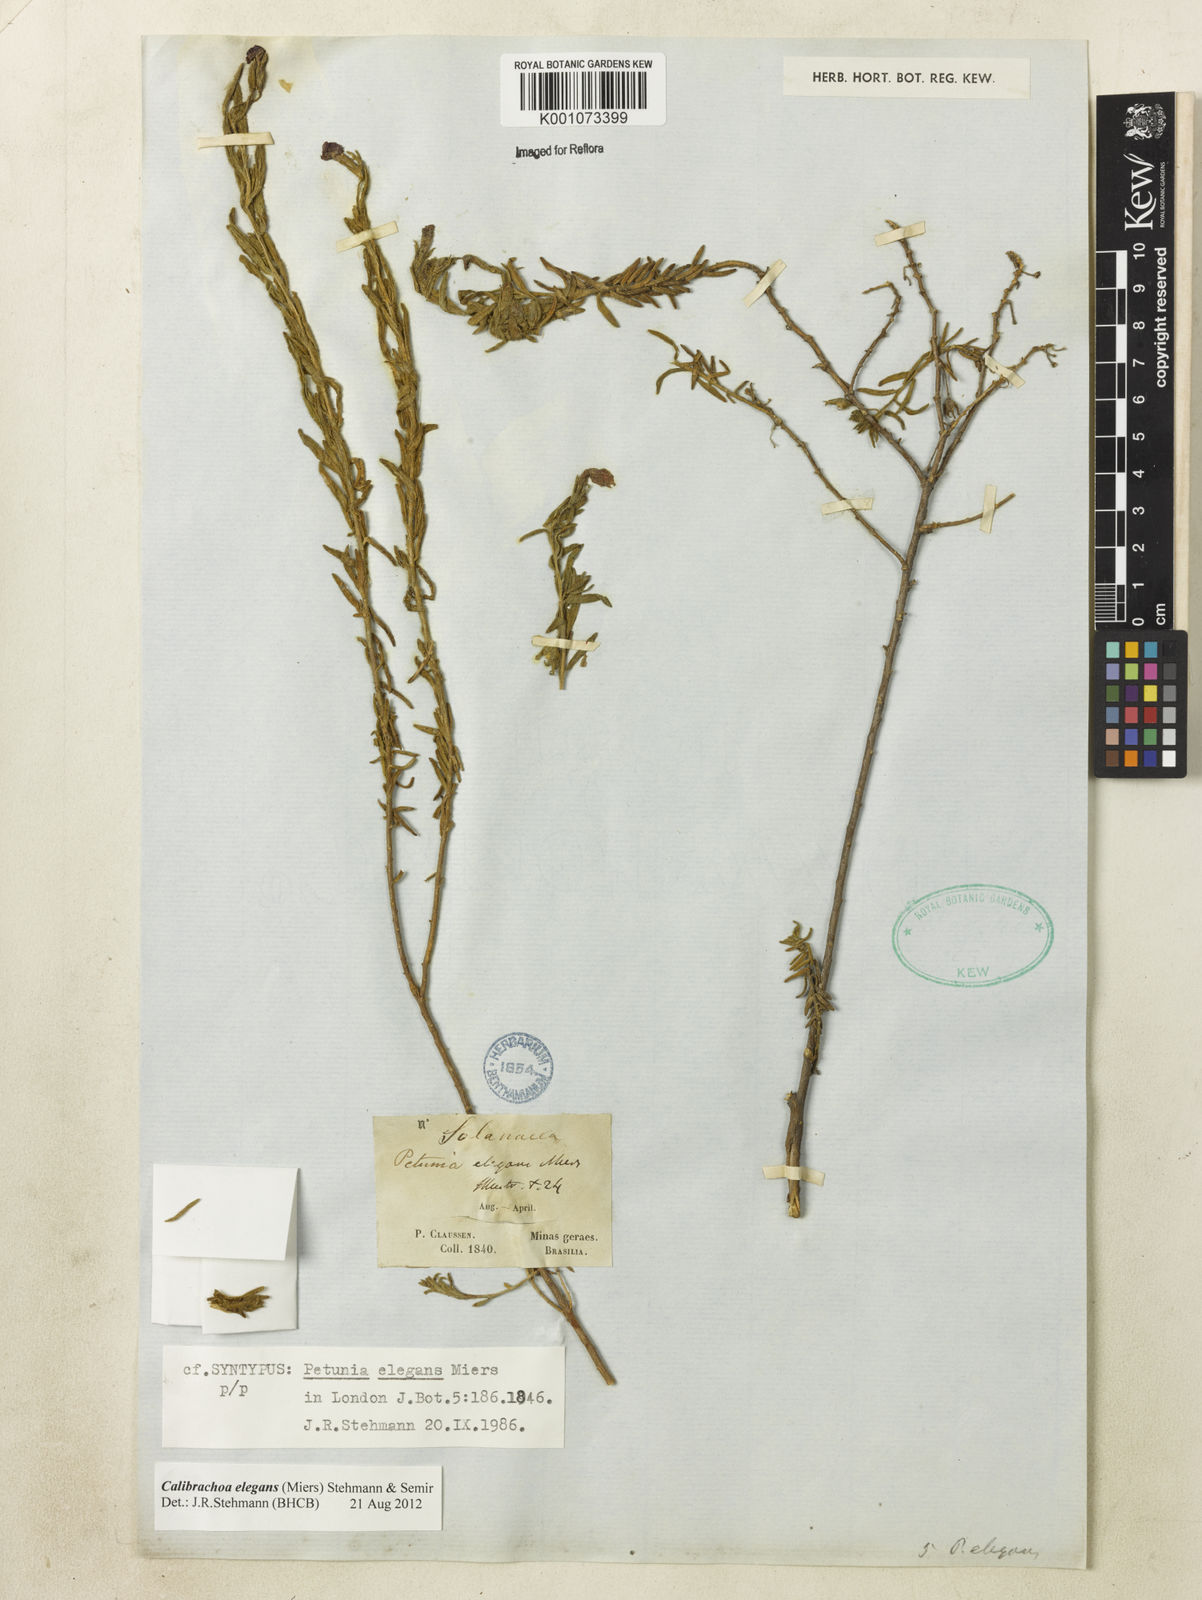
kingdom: Plantae
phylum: Tracheophyta
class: Magnoliopsida
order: Solanales
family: Solanaceae
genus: Calibrachoa
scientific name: Calibrachoa elegans
